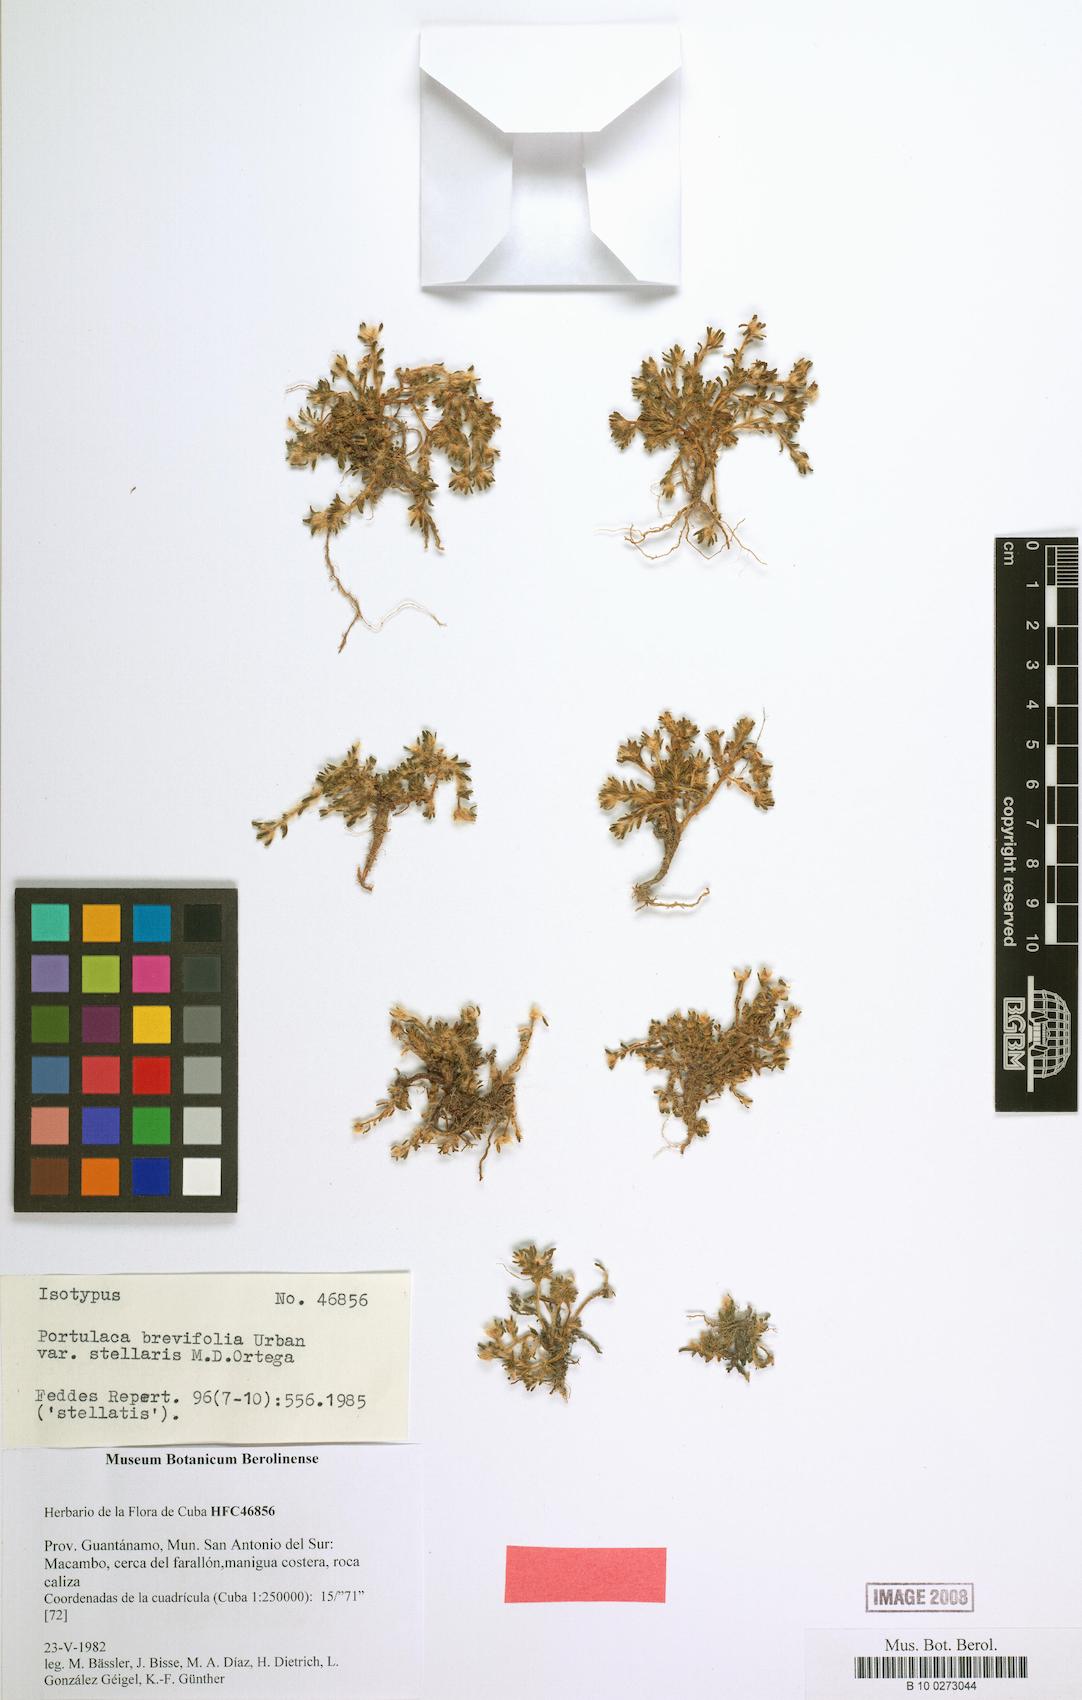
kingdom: Plantae
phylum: Tracheophyta
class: Magnoliopsida
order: Caryophyllales
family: Portulacaceae
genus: Portulaca
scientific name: Portulaca brevifolia
